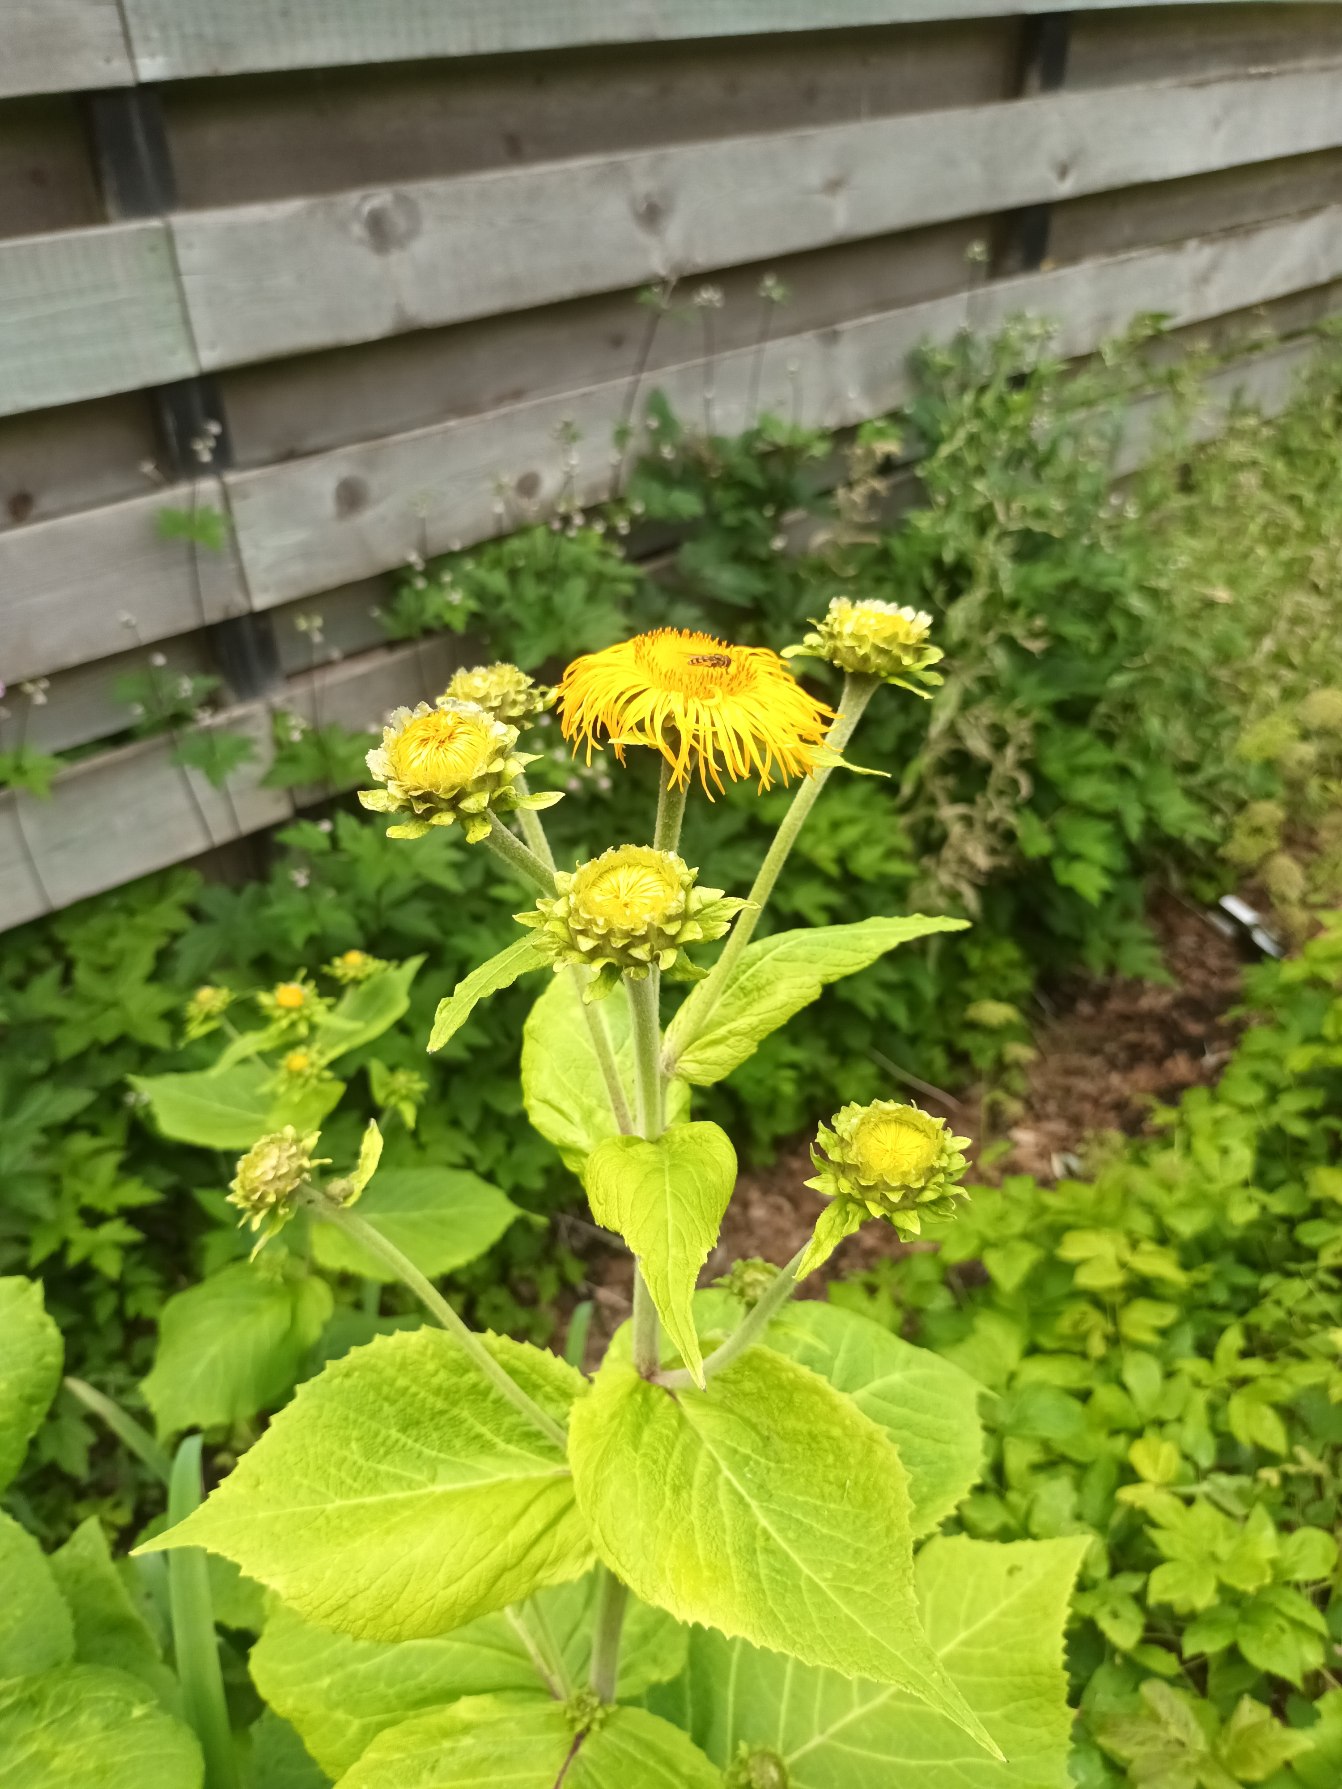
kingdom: Plantae
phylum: Tracheophyta
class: Magnoliopsida
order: Asterales
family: Asteraceae
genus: Telekia
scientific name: Telekia speciosa
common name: Tusindstråle
